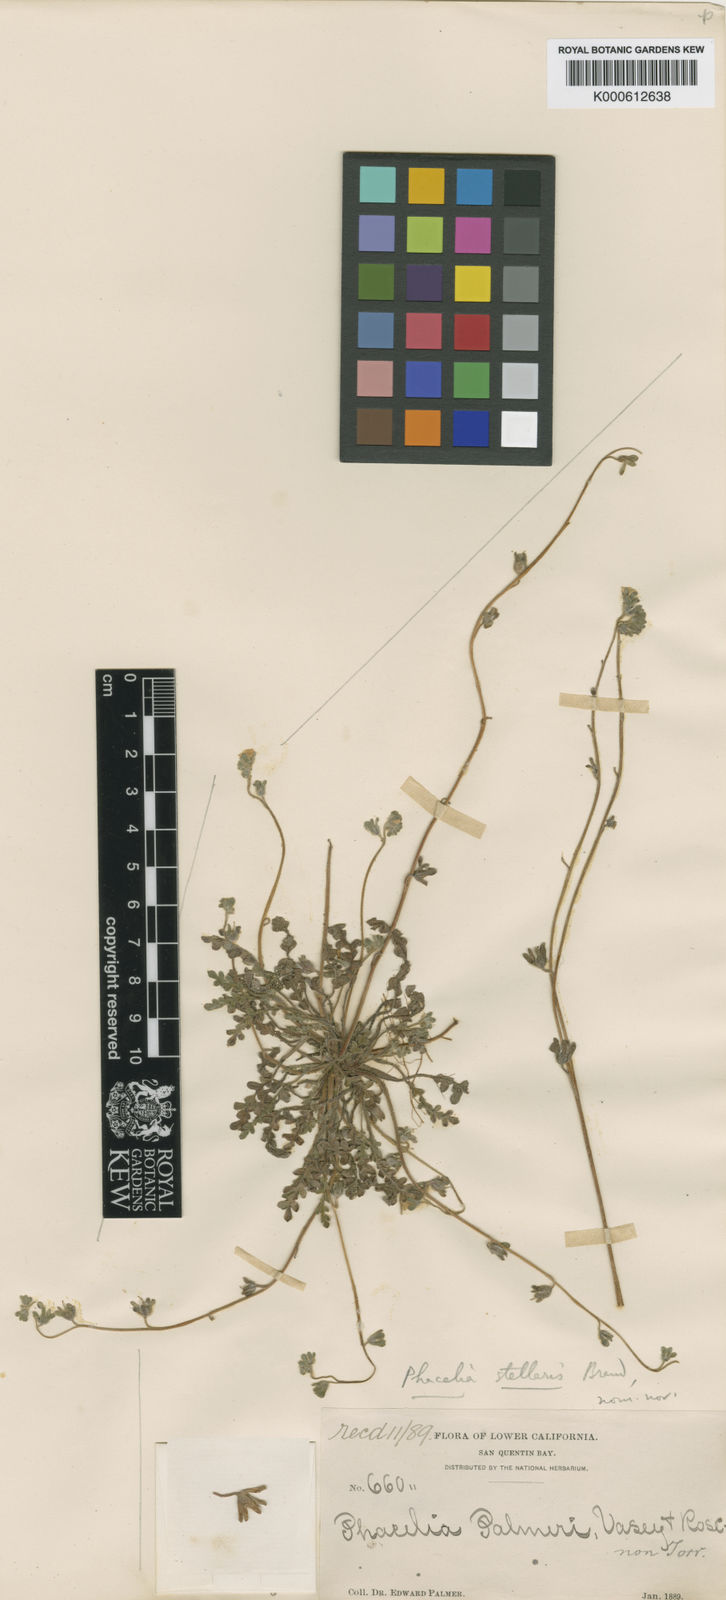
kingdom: Plantae
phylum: Tracheophyta
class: Magnoliopsida
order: Boraginales
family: Hydrophyllaceae
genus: Phacelia
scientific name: Phacelia stellaris
